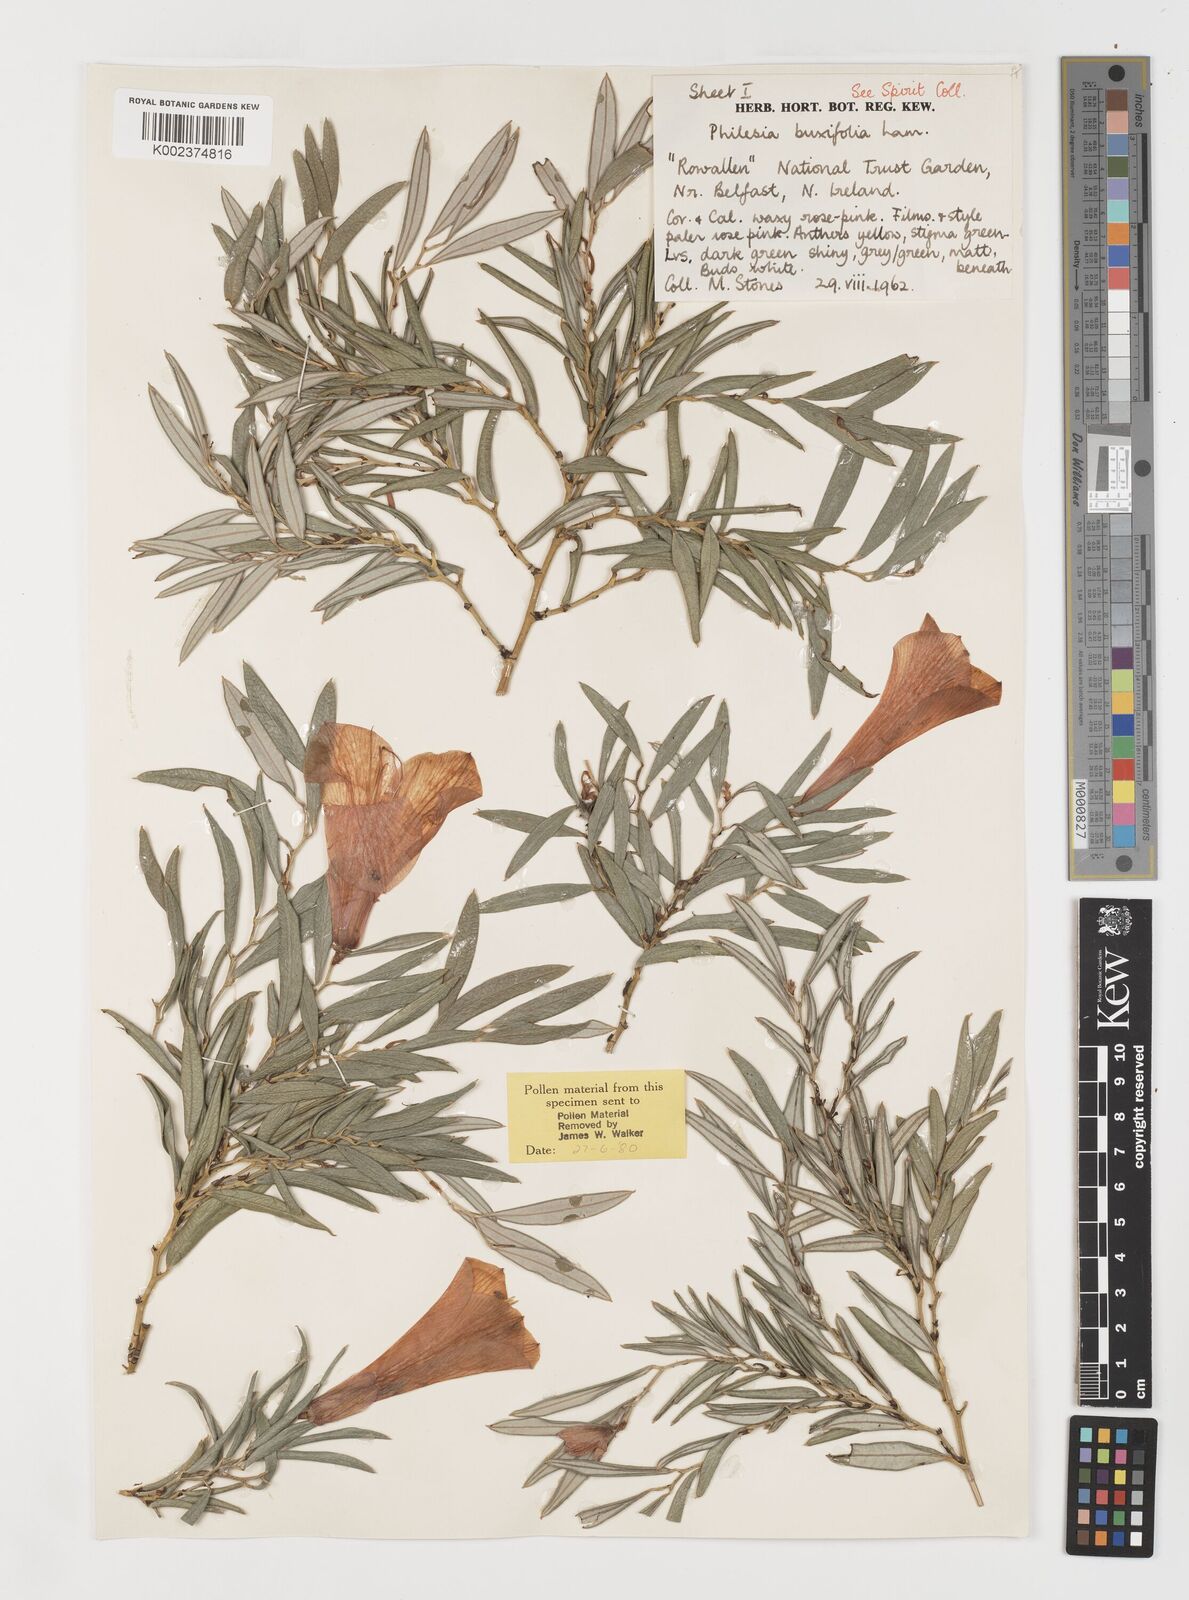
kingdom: Plantae
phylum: Tracheophyta
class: Liliopsida
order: Liliales
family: Philesiaceae
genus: Philesia
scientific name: Philesia magellanica
